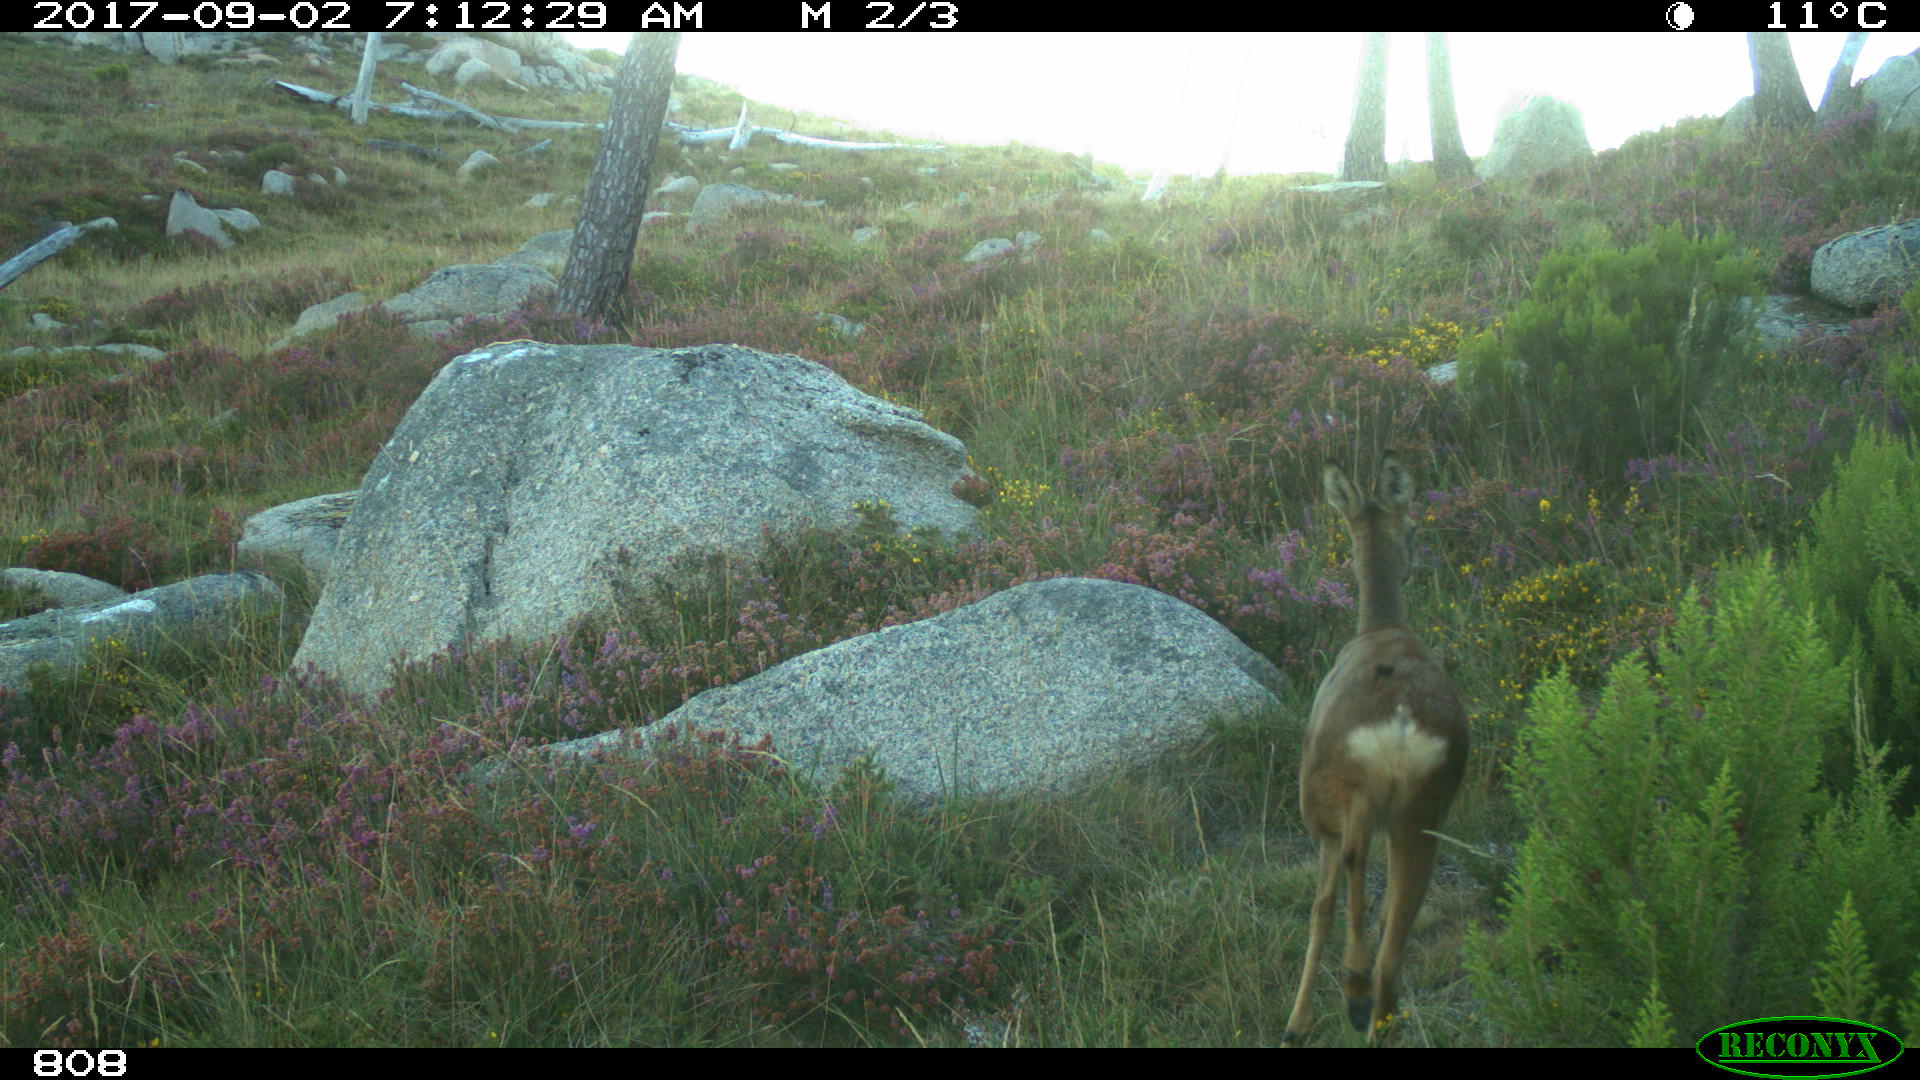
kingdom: Animalia
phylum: Chordata
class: Mammalia
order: Artiodactyla
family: Cervidae
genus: Capreolus
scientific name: Capreolus capreolus
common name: Western roe deer
